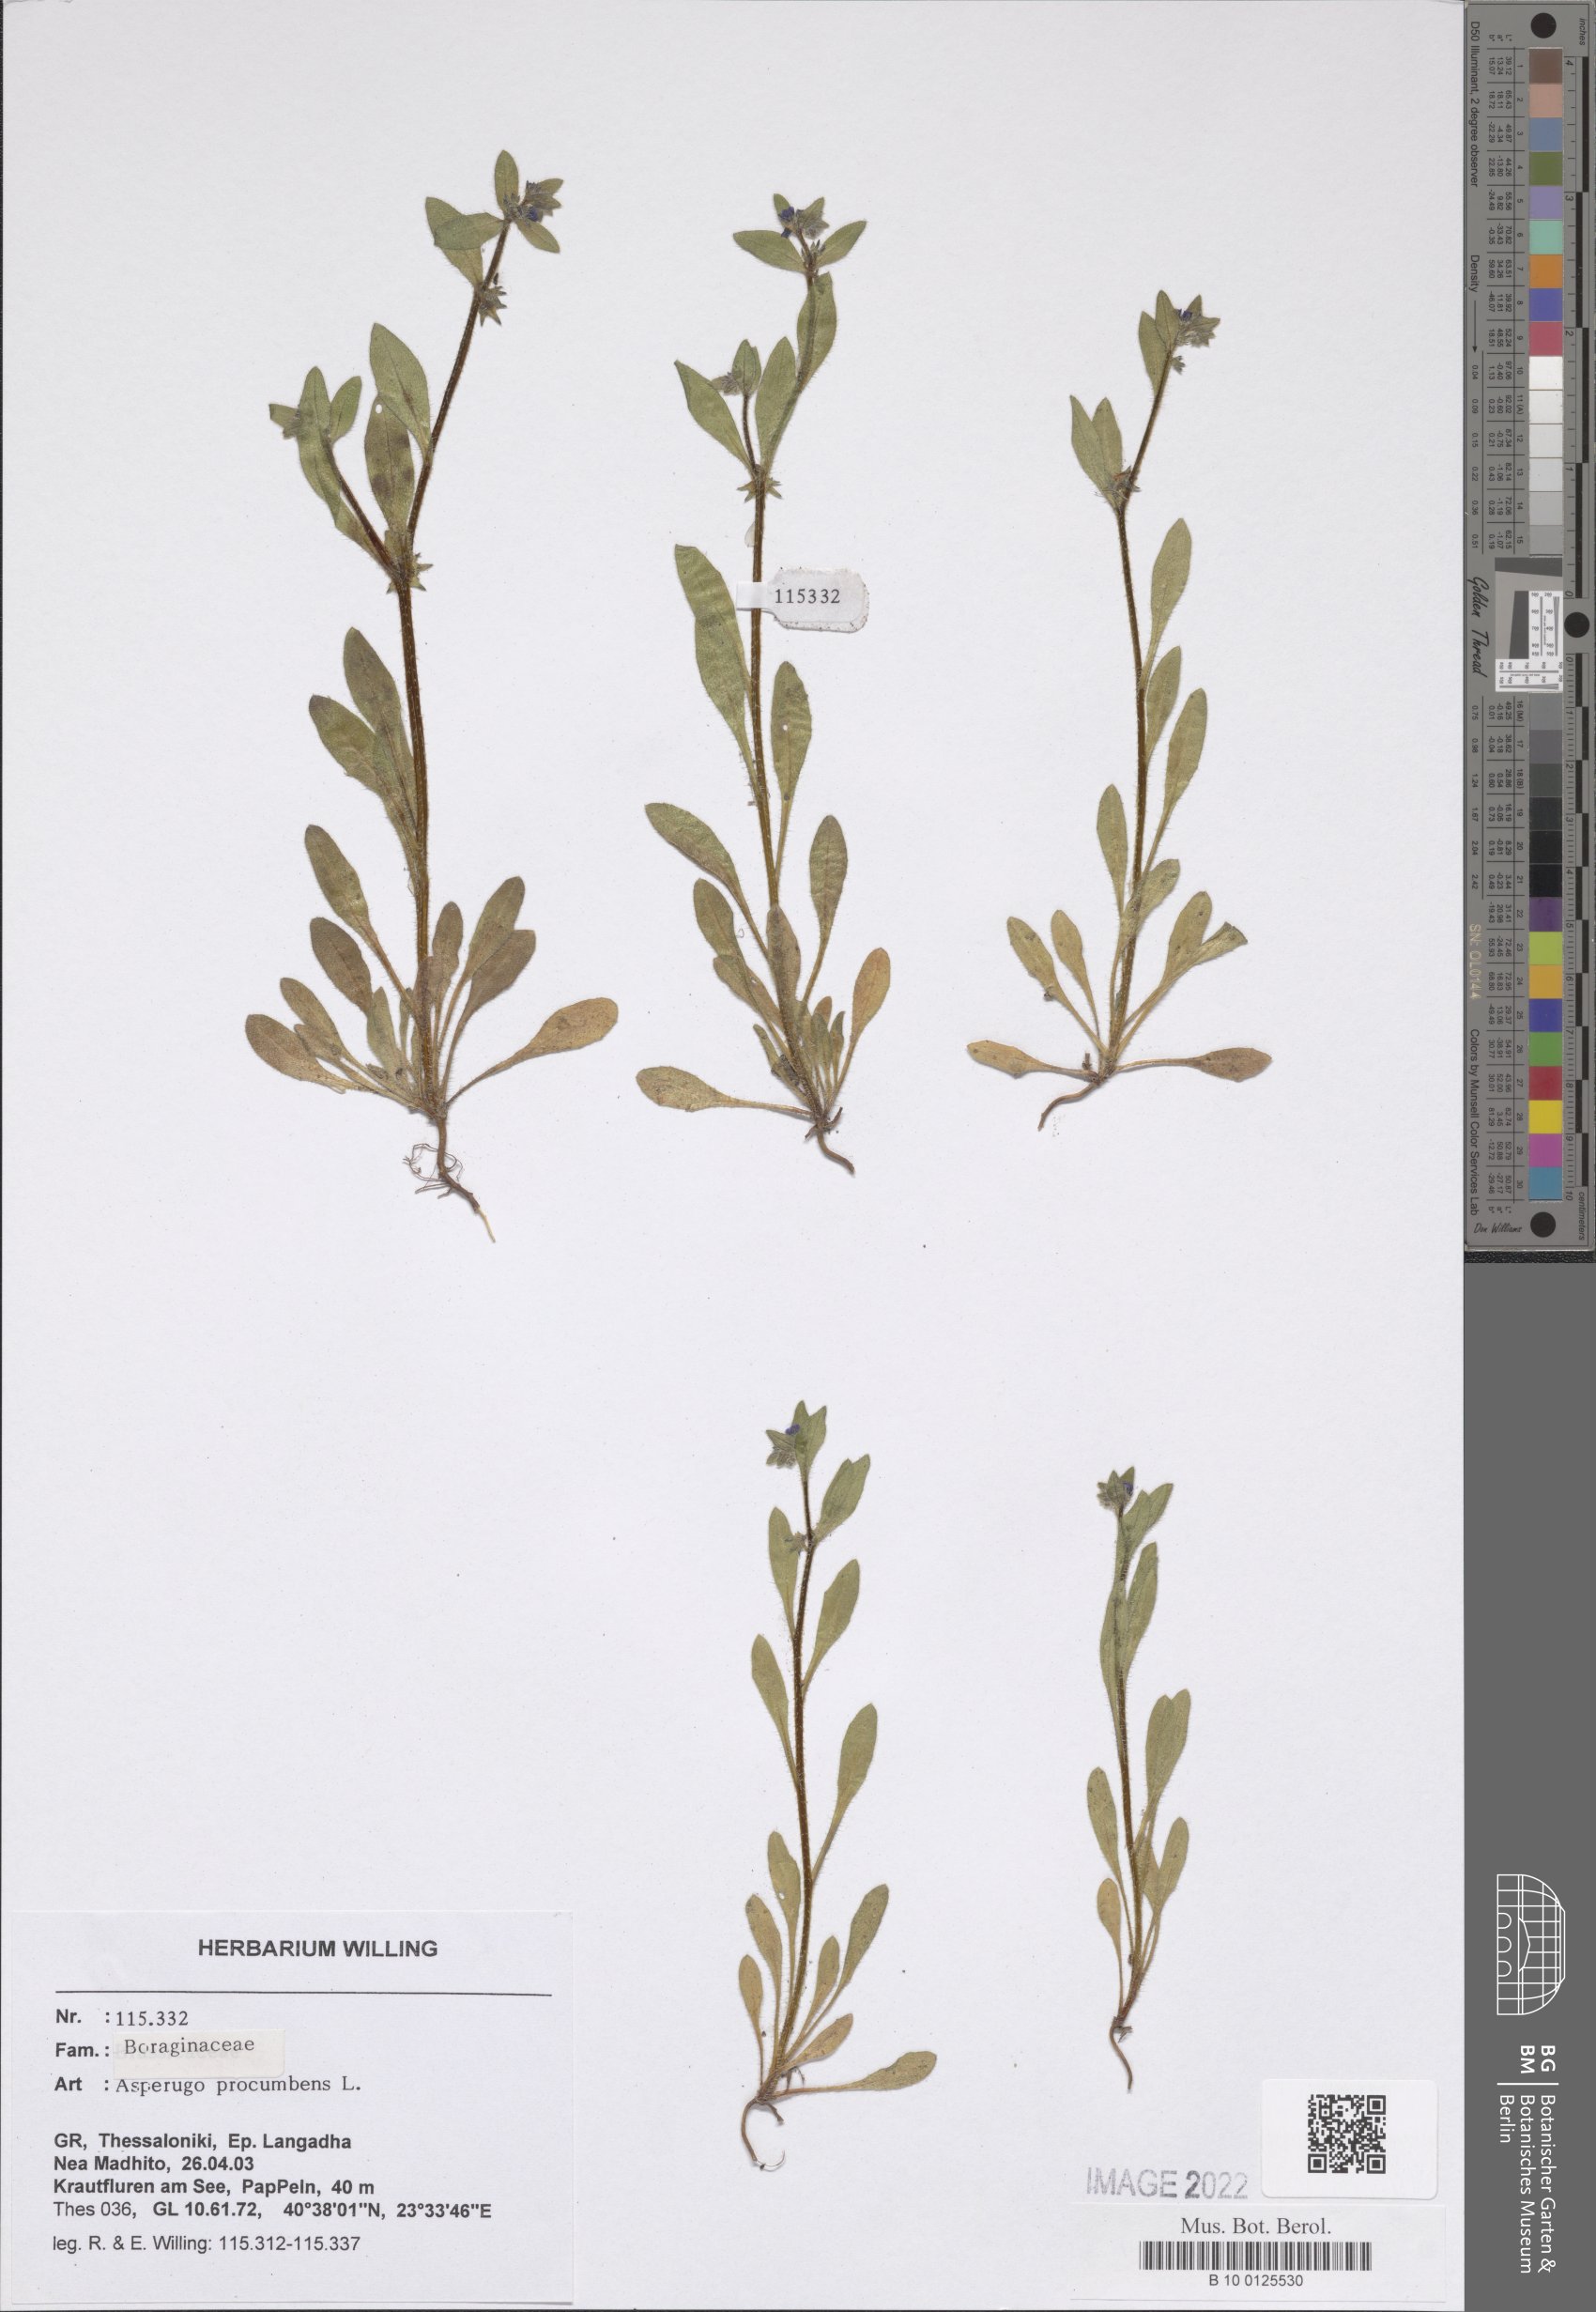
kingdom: Plantae
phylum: Tracheophyta
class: Magnoliopsida
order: Boraginales
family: Boraginaceae
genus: Asperugo
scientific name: Asperugo procumbens
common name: Madwort
